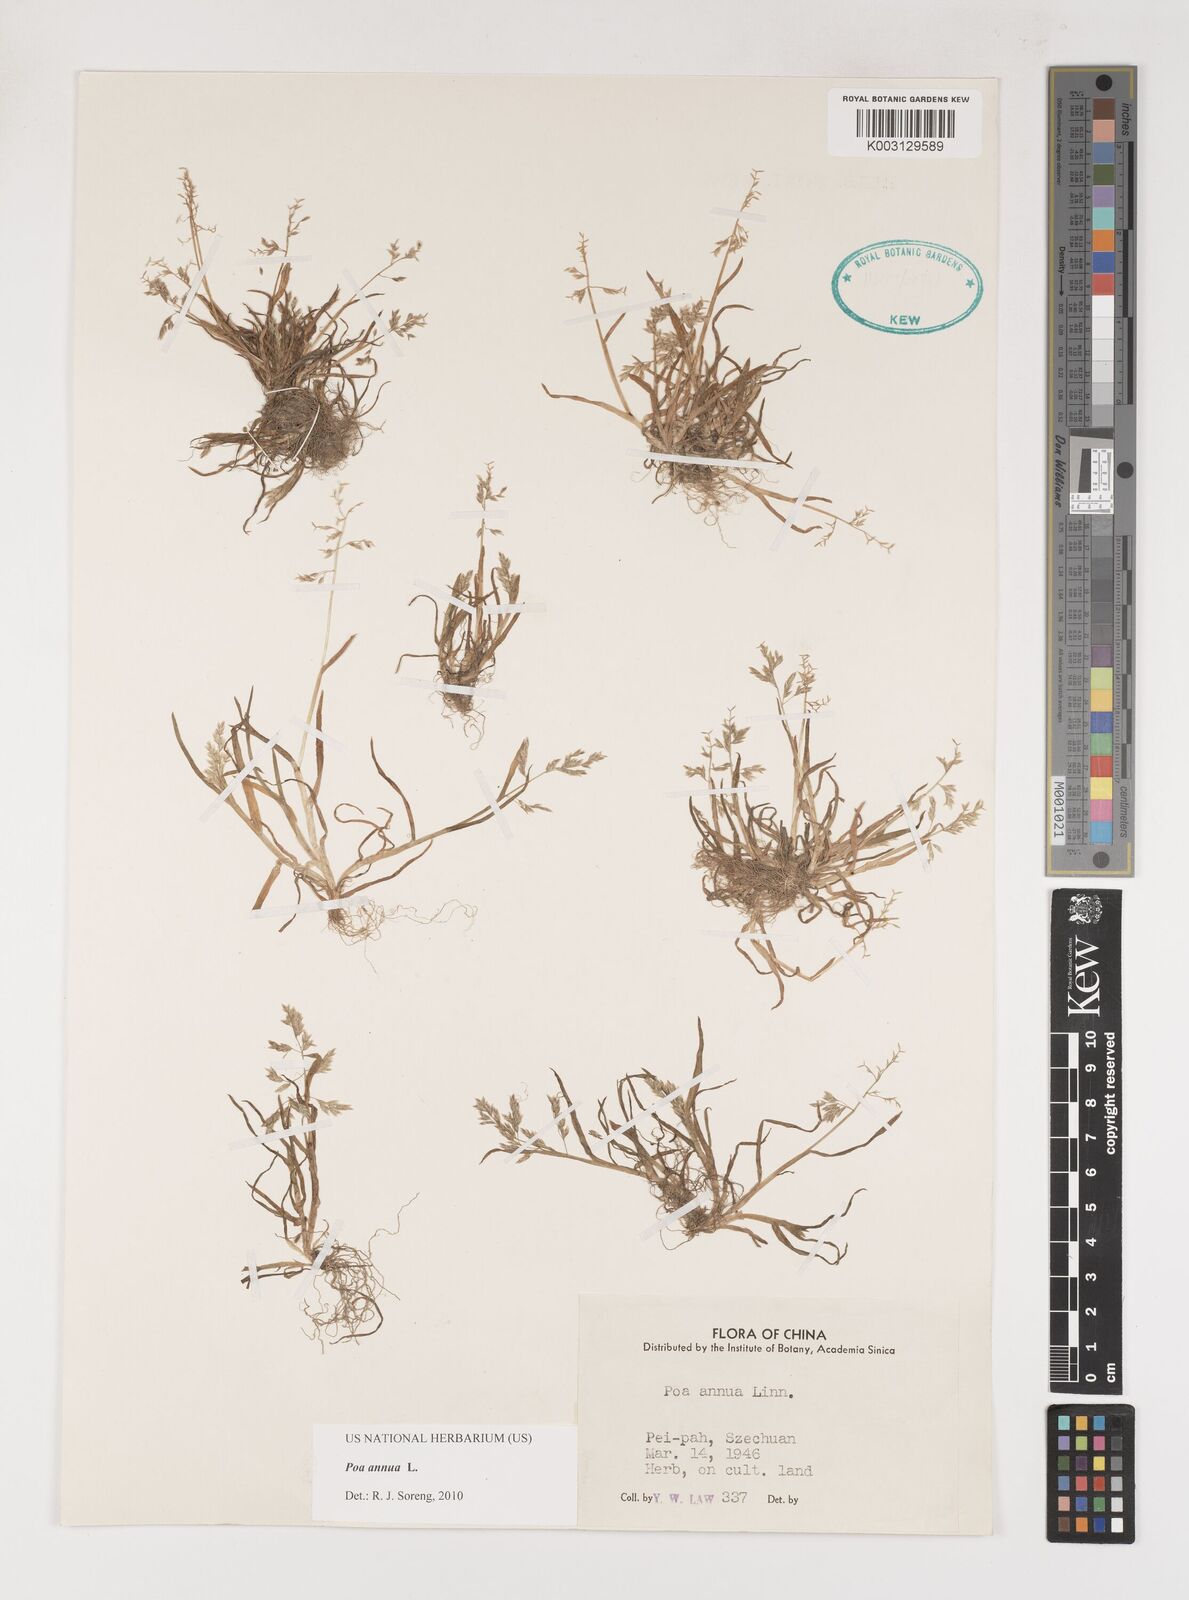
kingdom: Plantae
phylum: Tracheophyta
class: Liliopsida
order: Poales
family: Poaceae
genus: Poa
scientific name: Poa annua
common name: Annual bluegrass
